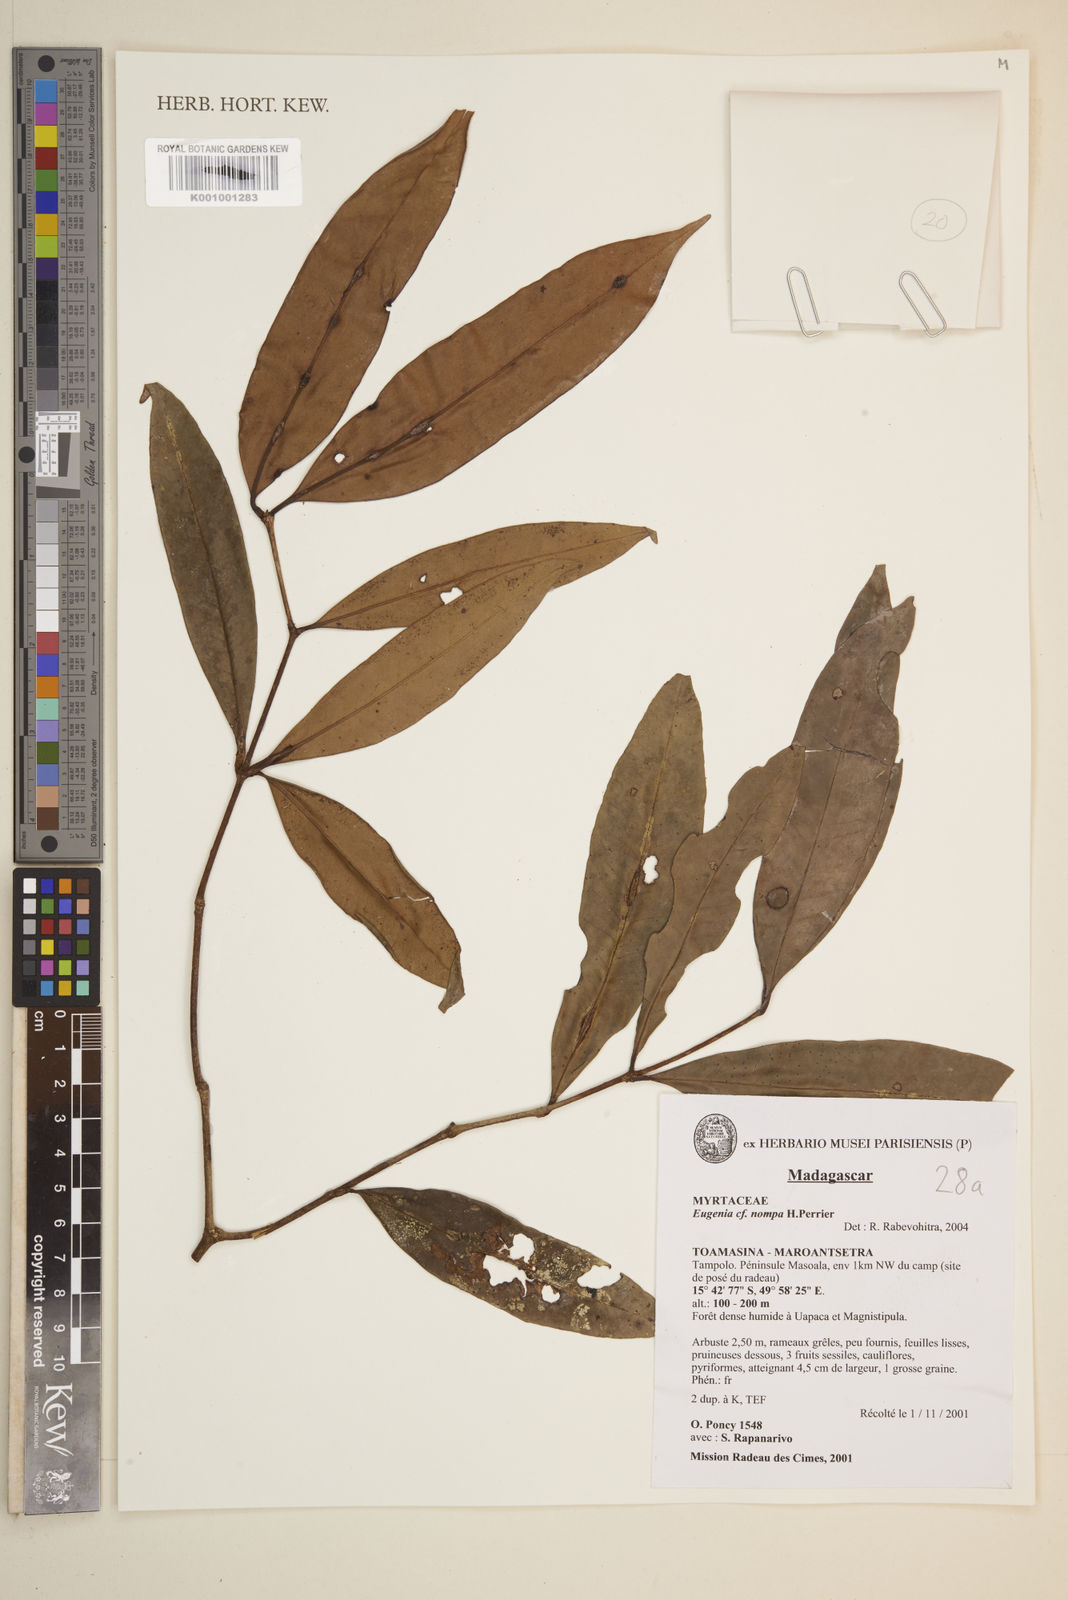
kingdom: Plantae
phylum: Tracheophyta
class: Magnoliopsida
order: Myrtales
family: Myrtaceae
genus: Eugenia
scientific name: Eugenia nompa
